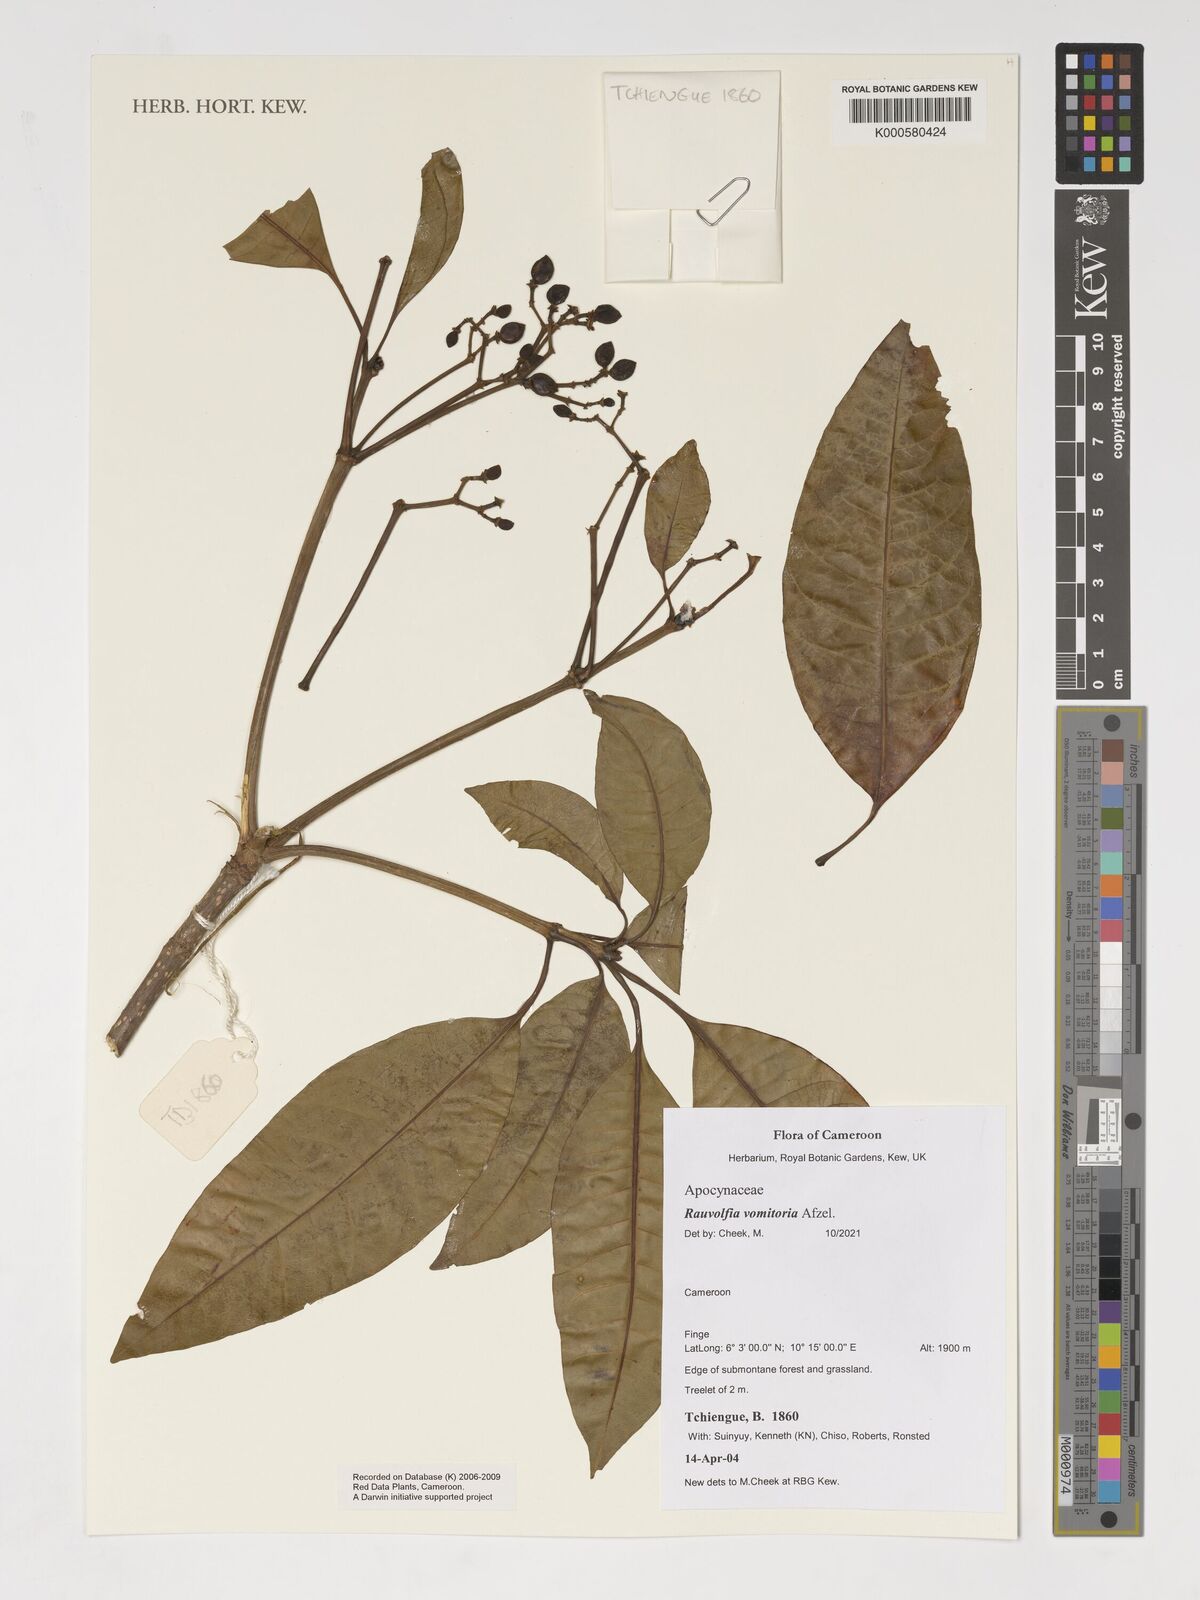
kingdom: Plantae
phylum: Tracheophyta
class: Magnoliopsida
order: Gentianales
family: Apocynaceae
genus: Rauvolfia
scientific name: Rauvolfia
